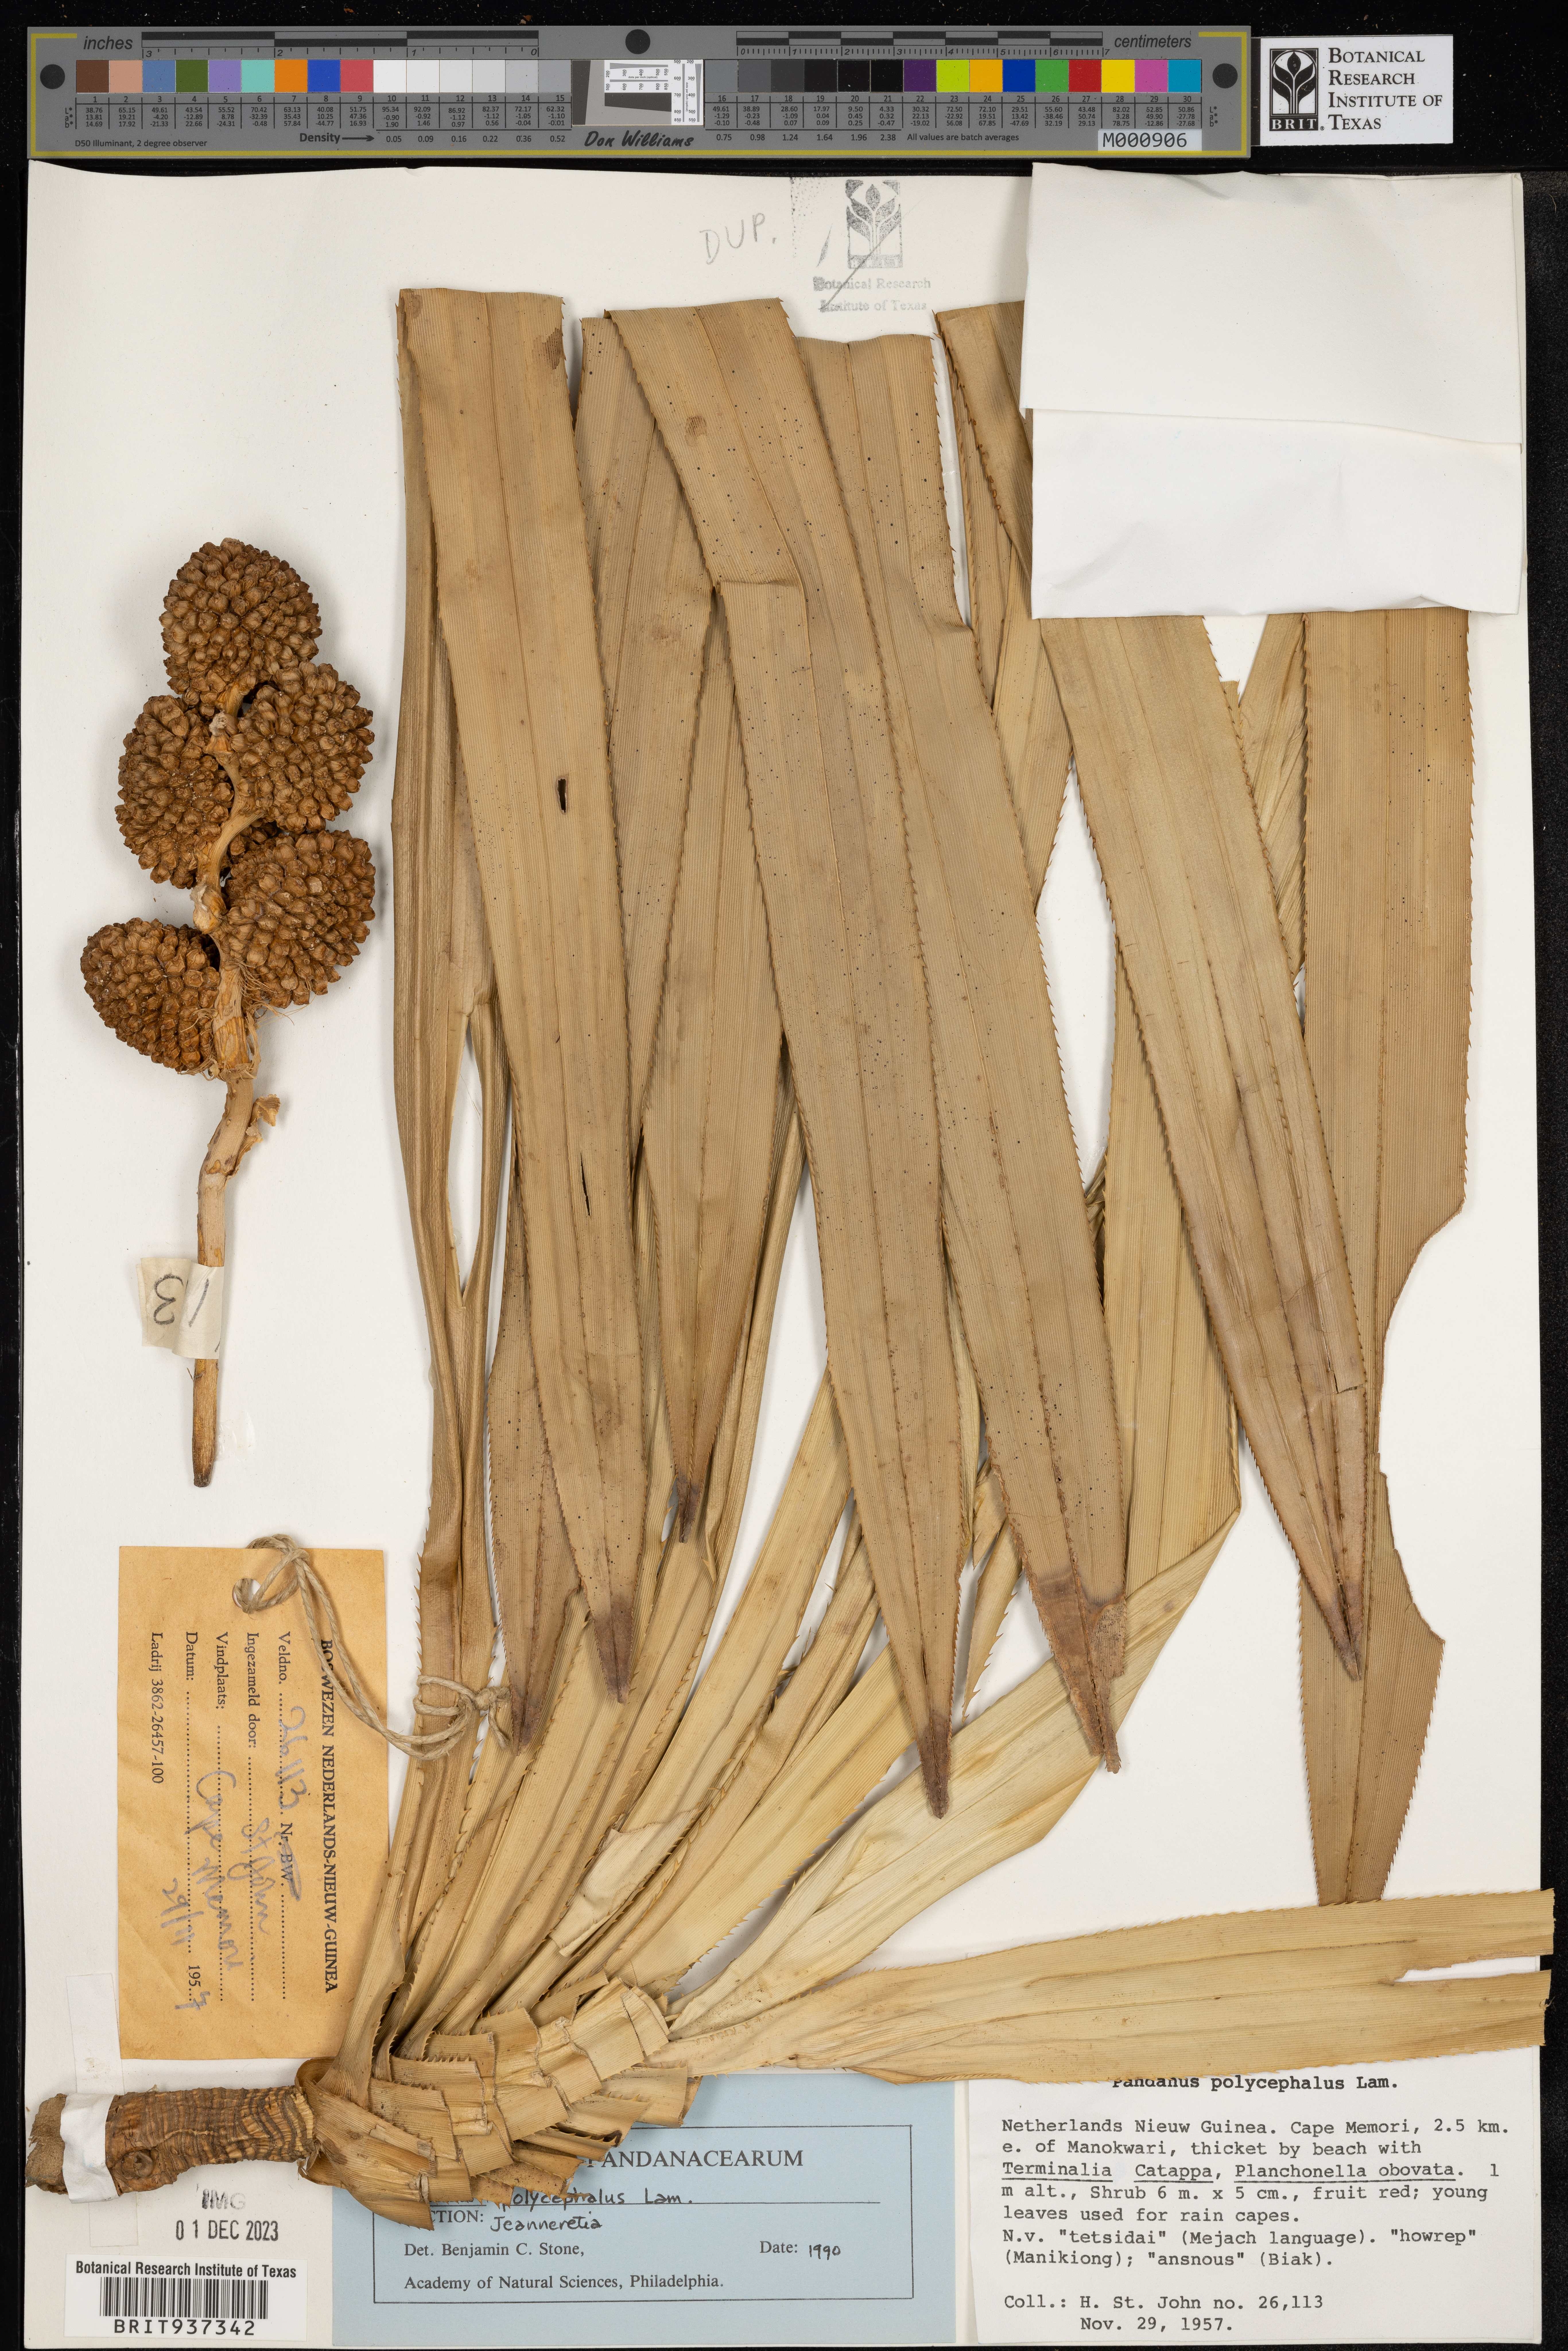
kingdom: Plantae
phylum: Tracheophyta
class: Liliopsida
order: Pandanales
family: Pandanaceae
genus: Pandanus
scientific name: Pandanus
